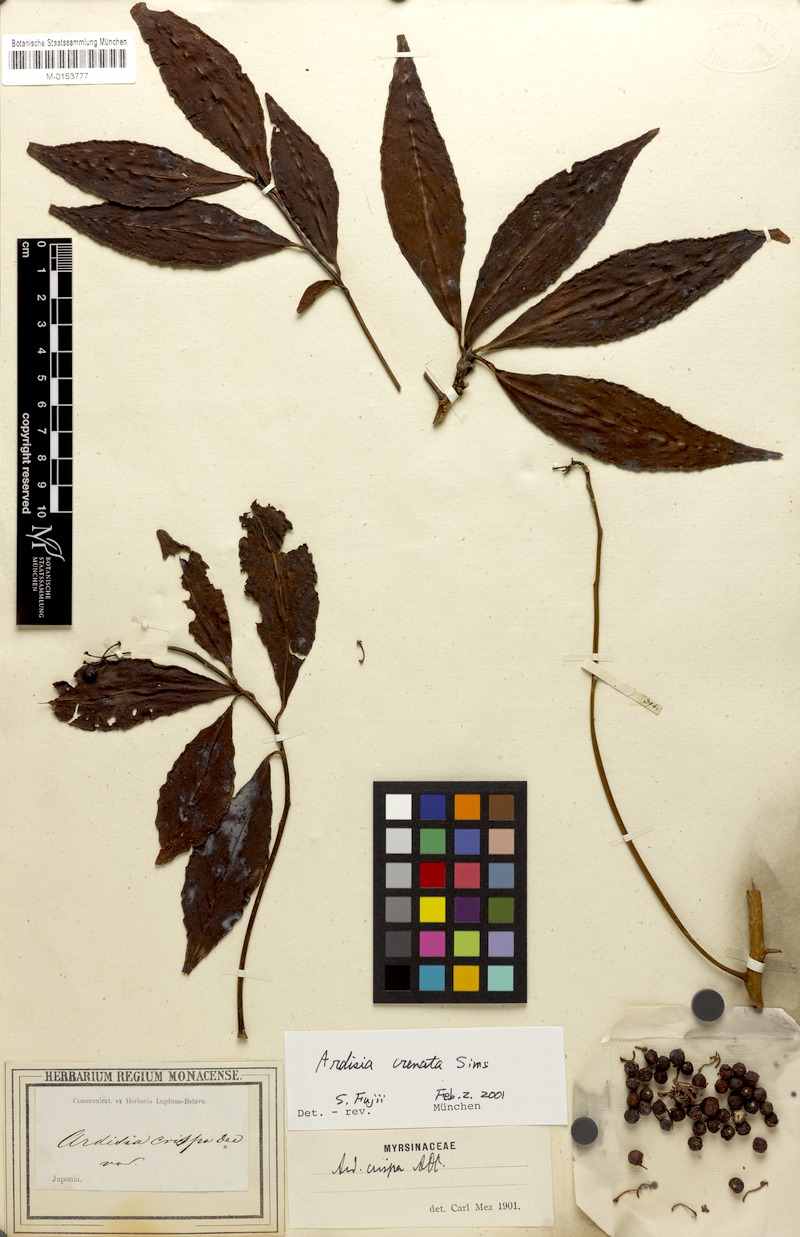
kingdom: Plantae
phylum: Tracheophyta
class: Magnoliopsida
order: Ericales
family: Primulaceae
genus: Ardisia
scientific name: Ardisia crenata
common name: Hen's eyes
